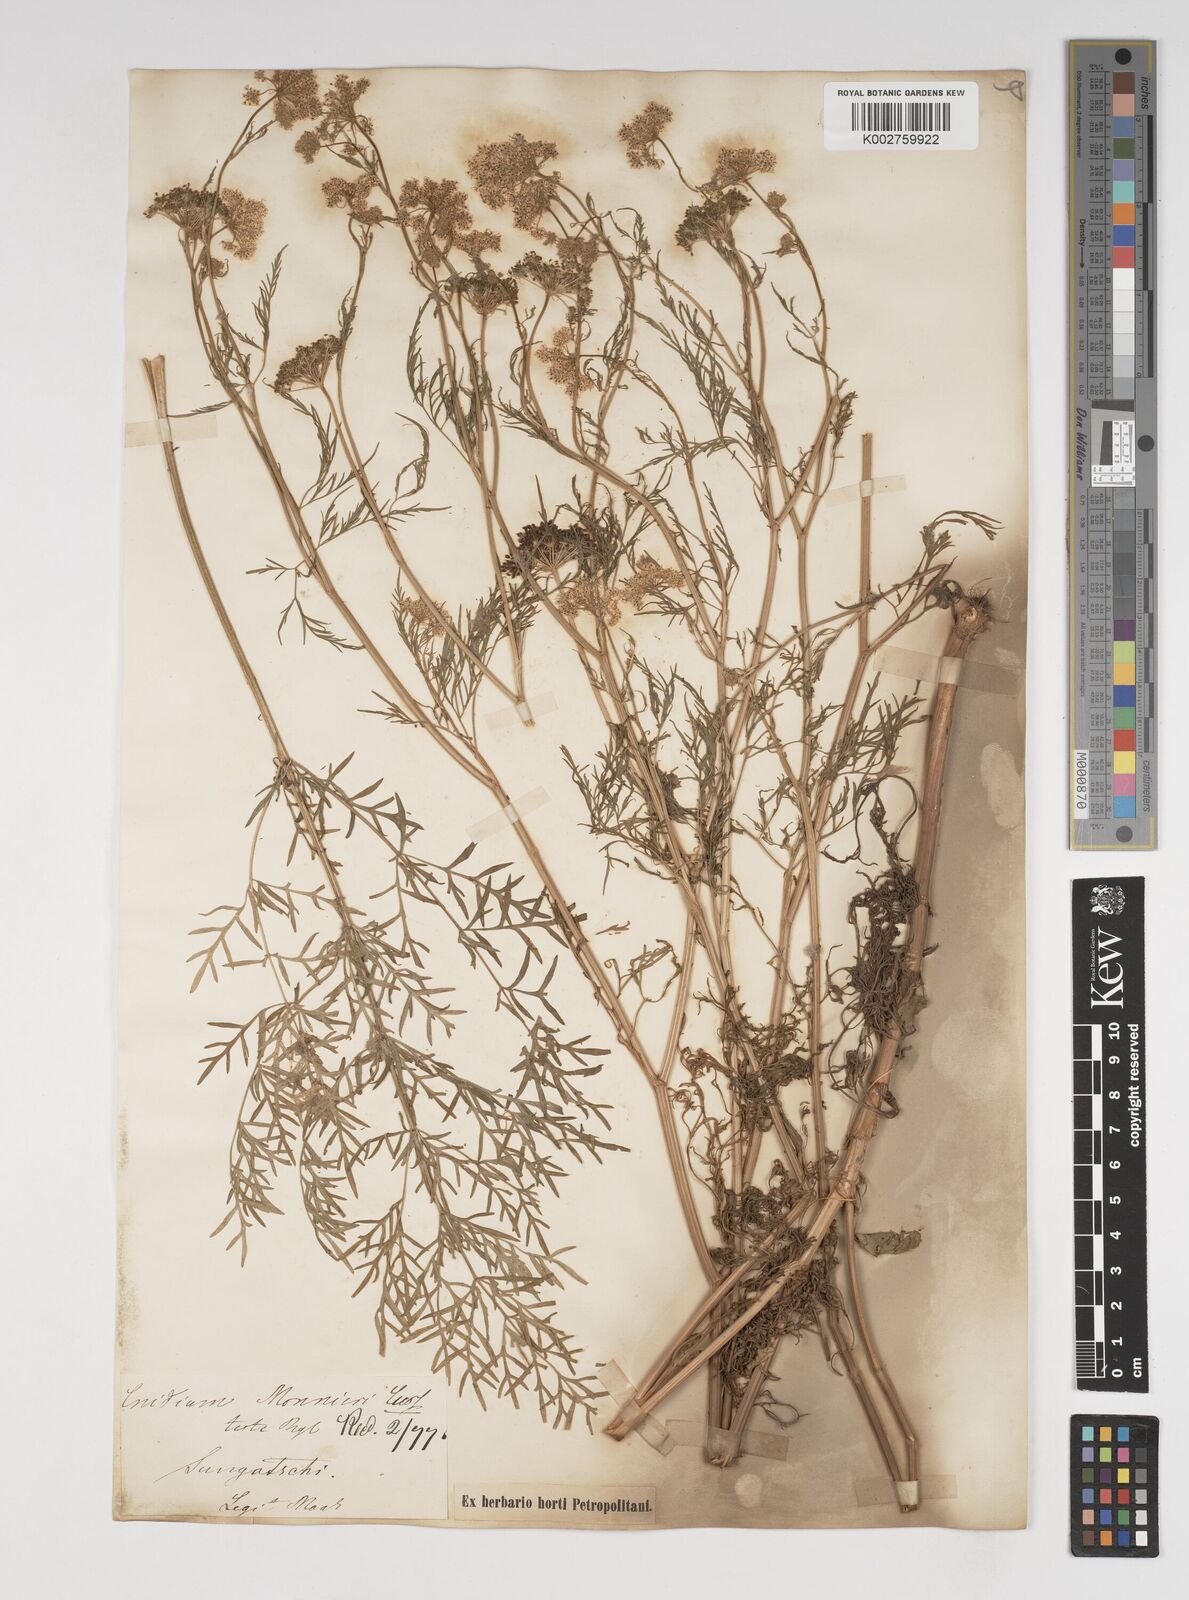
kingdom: Plantae
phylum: Tracheophyta
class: Magnoliopsida
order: Apiales
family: Apiaceae
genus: Cnidium
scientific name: Cnidium monnieri
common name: Monnier's snowparsley
